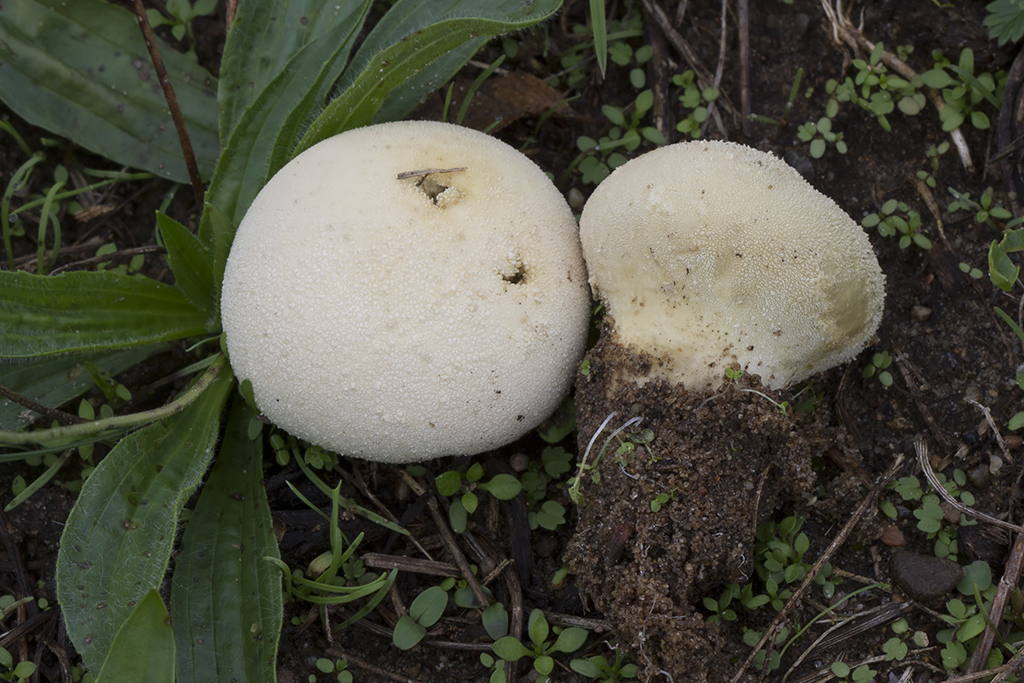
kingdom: Fungi
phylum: Basidiomycota
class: Agaricomycetes
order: Agaricales
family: Lycoperdaceae
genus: Lycoperdon
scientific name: Lycoperdon pratense
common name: flad støvbold
